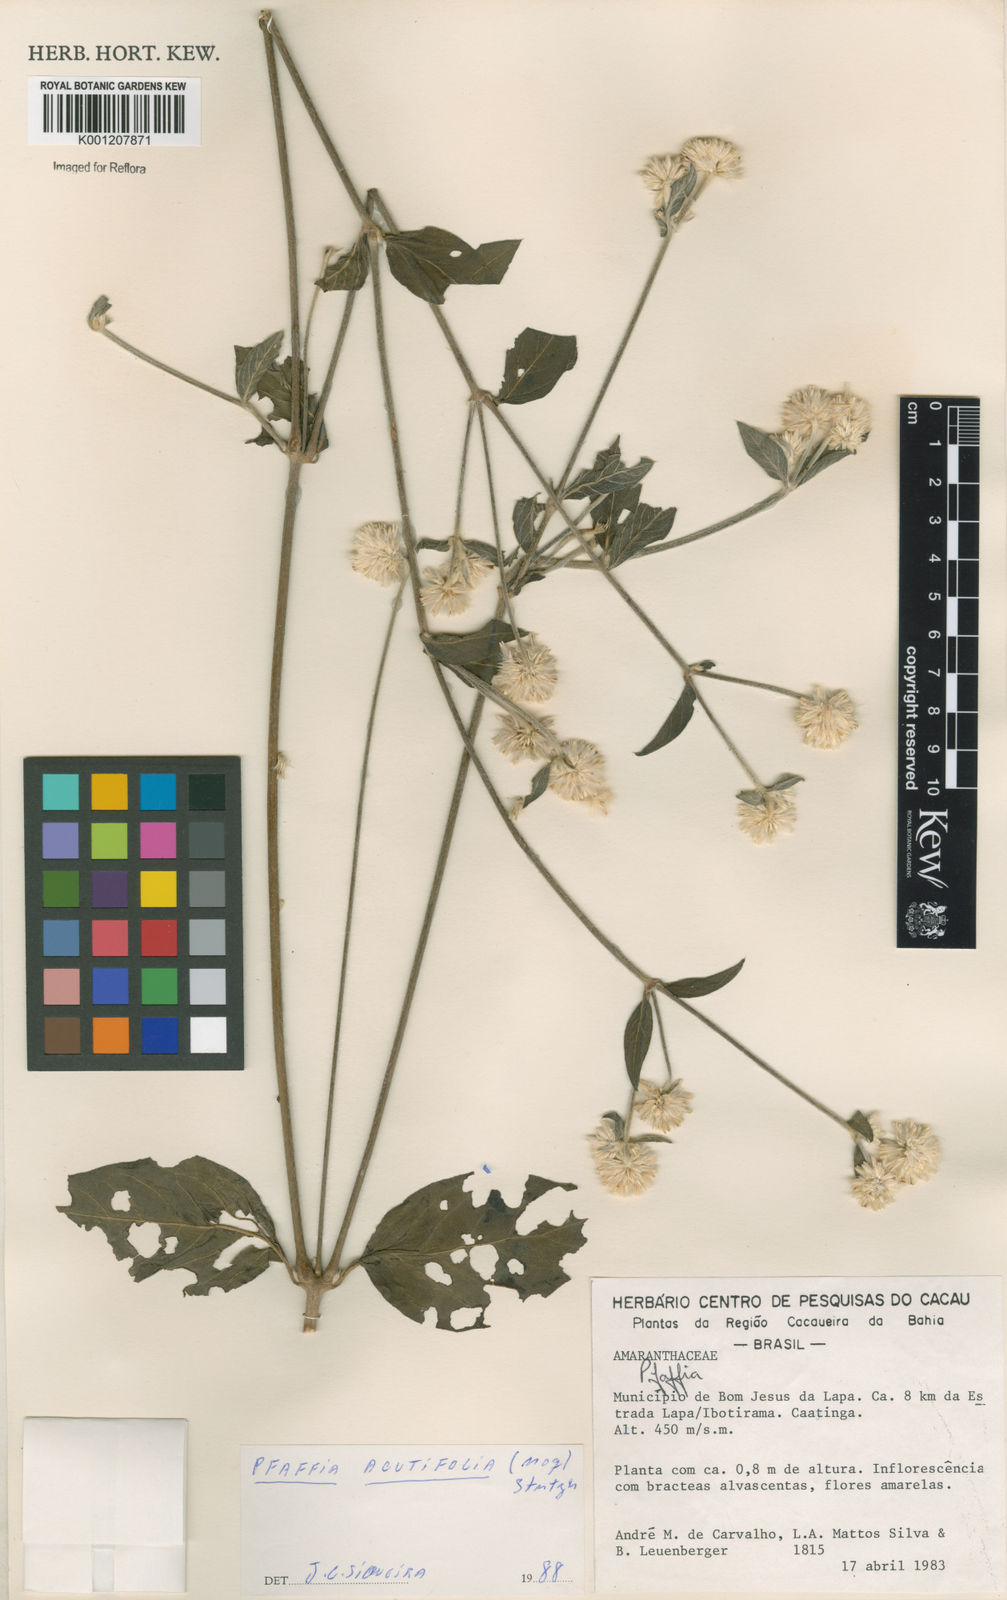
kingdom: Plantae
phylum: Tracheophyta
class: Magnoliopsida
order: Caryophyllales
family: Amaranthaceae
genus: Pfaffia
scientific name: Pfaffia
